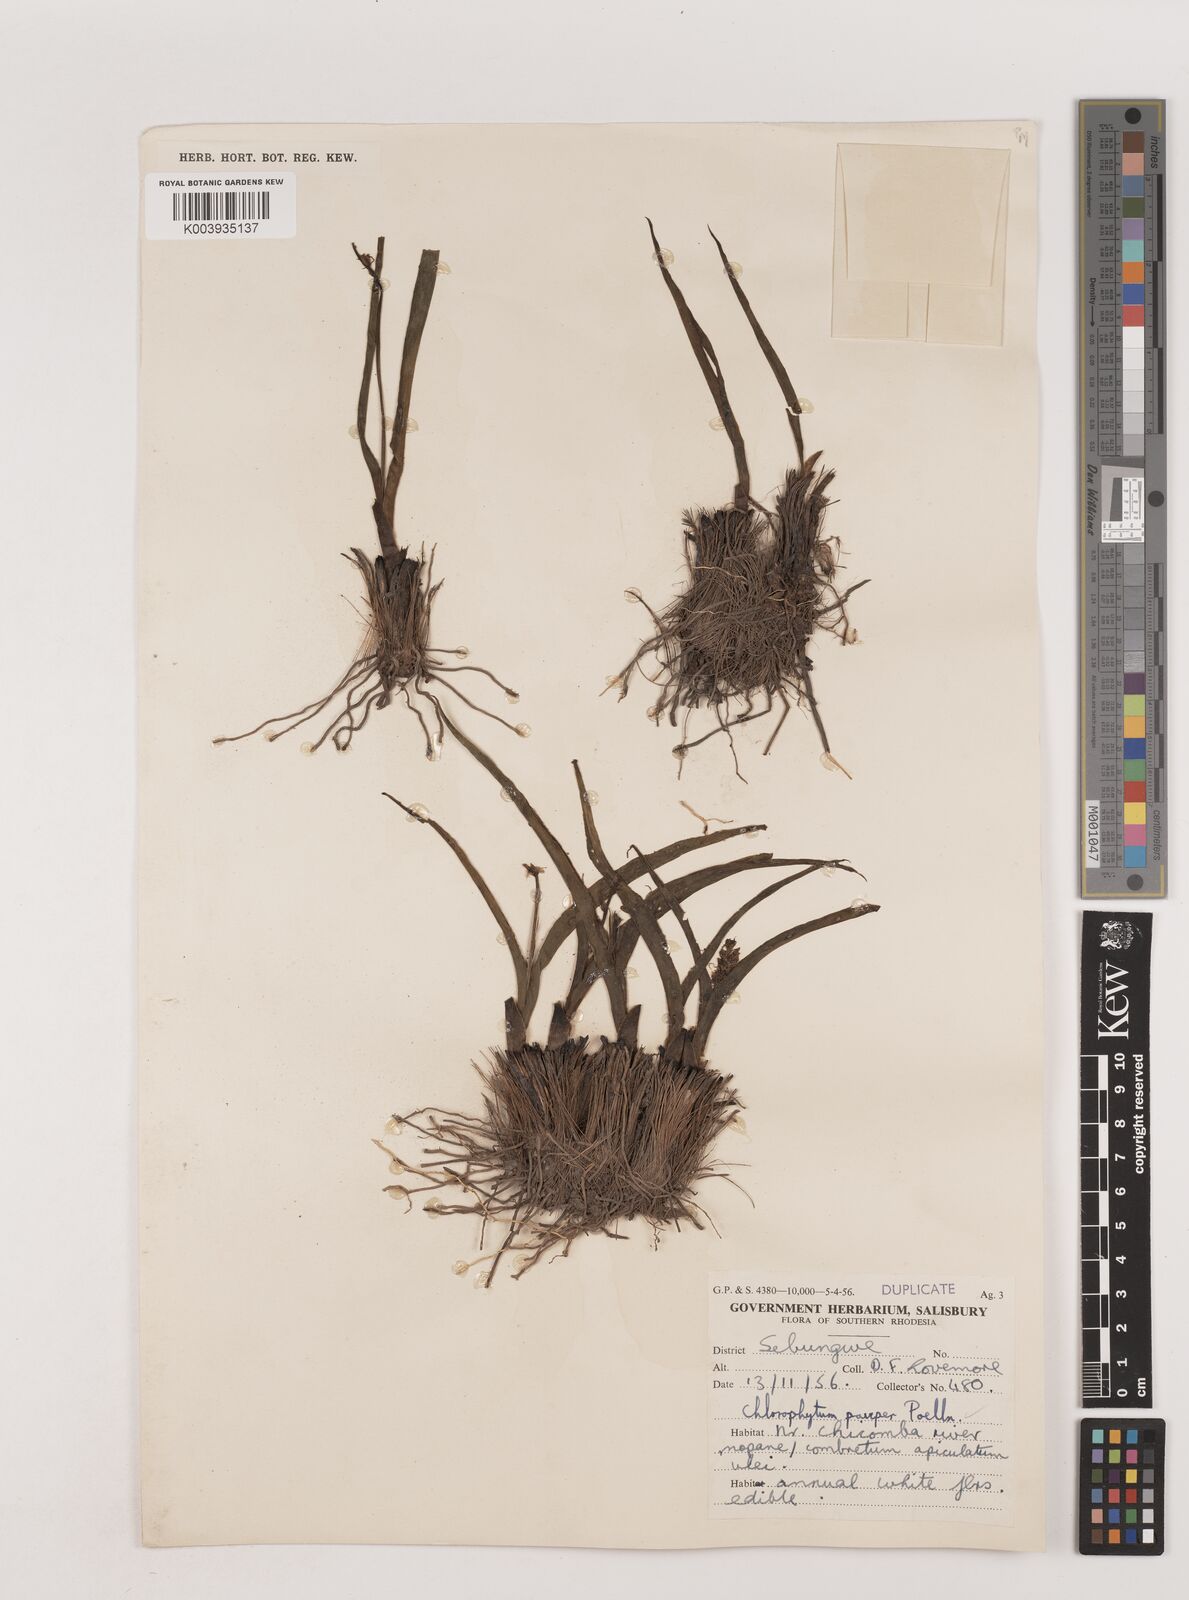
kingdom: Plantae
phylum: Tracheophyta
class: Liliopsida
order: Asparagales
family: Asparagaceae
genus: Chlorophytum
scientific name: Chlorophytum pauper
